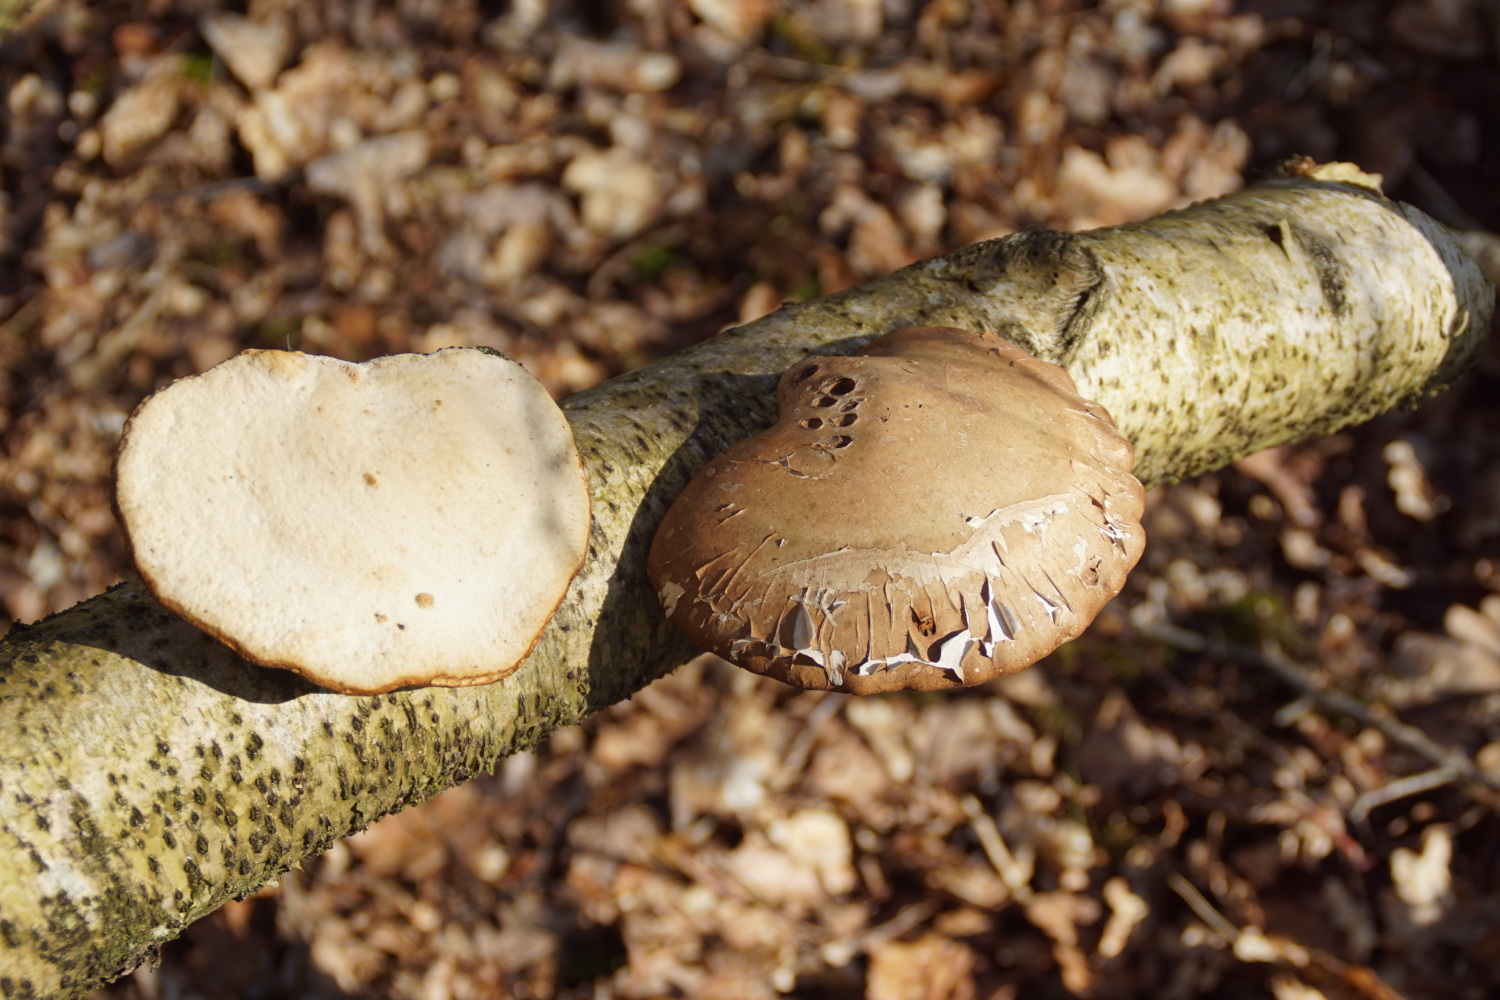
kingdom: Fungi
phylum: Basidiomycota
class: Agaricomycetes
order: Polyporales
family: Fomitopsidaceae
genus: Fomitopsis
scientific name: Fomitopsis betulina
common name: birkeporesvamp
